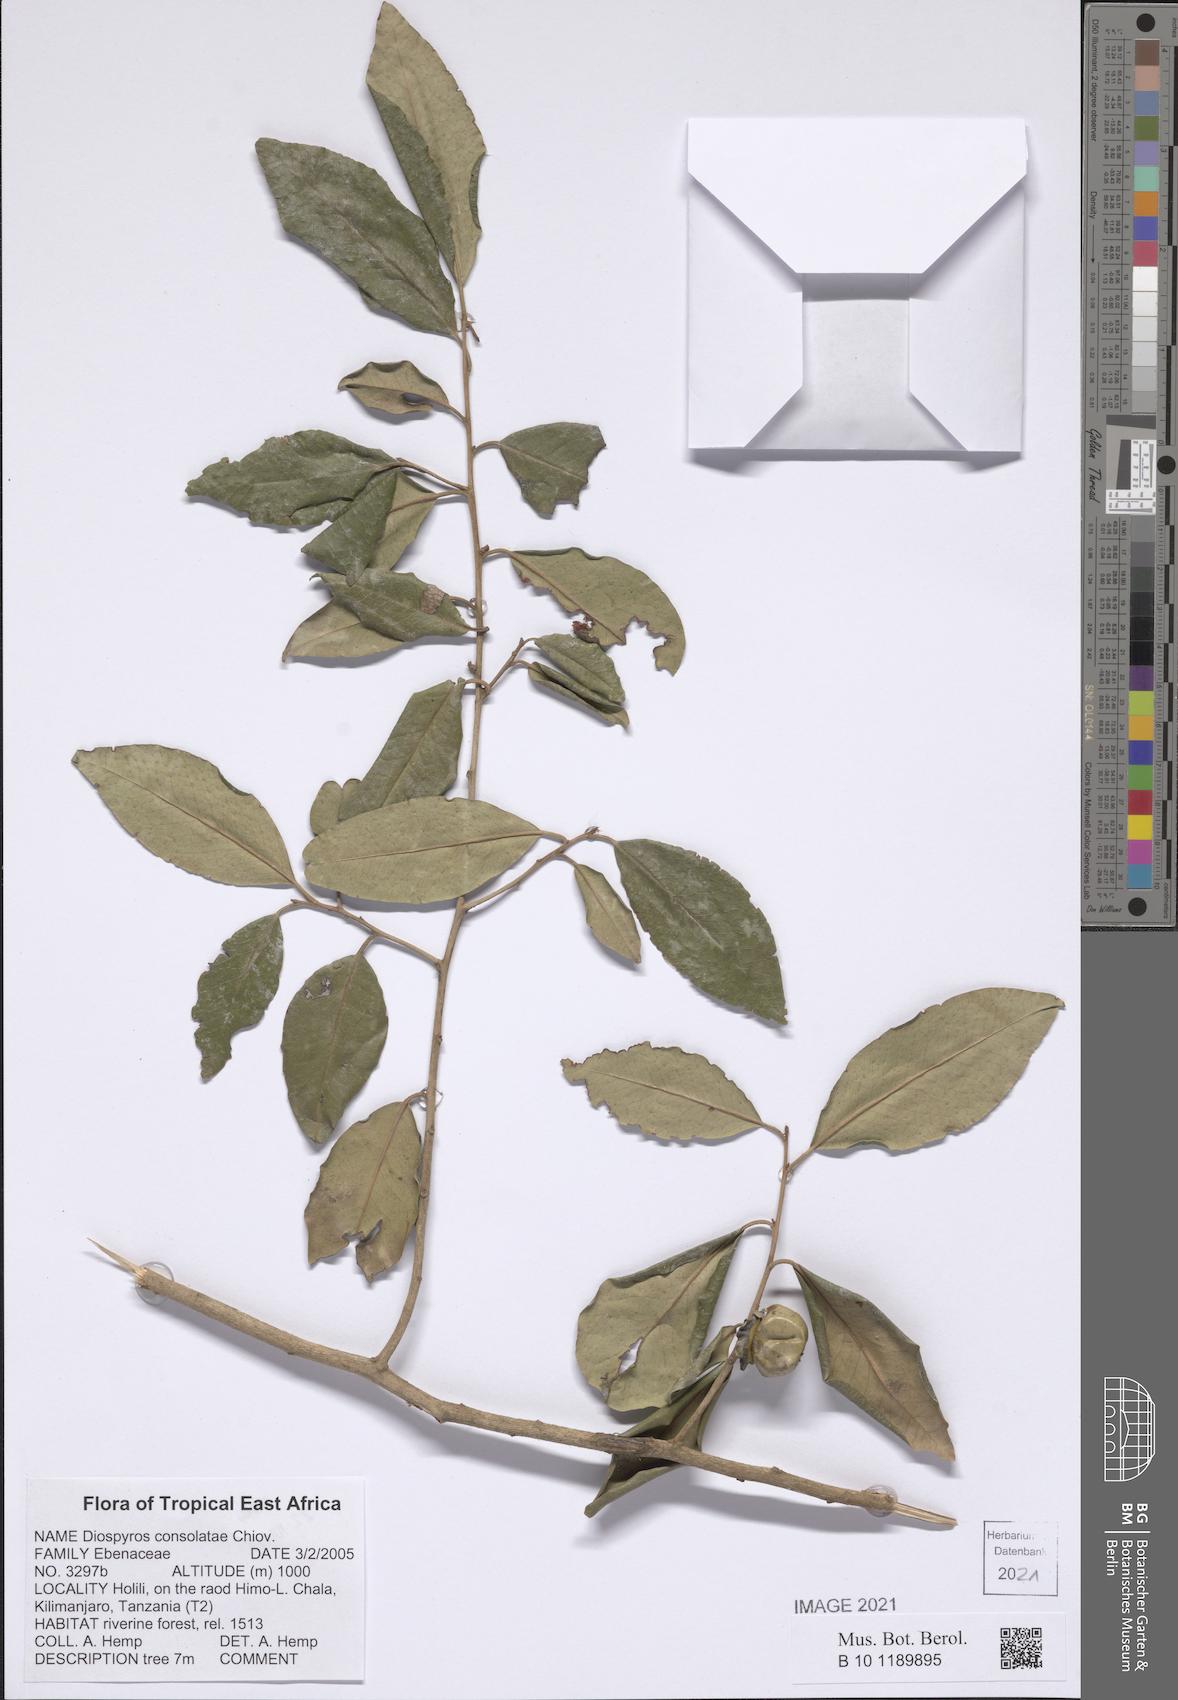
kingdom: Plantae
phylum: Tracheophyta
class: Magnoliopsida
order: Ericales
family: Ebenaceae
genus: Diospyros
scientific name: Diospyros consolatae
